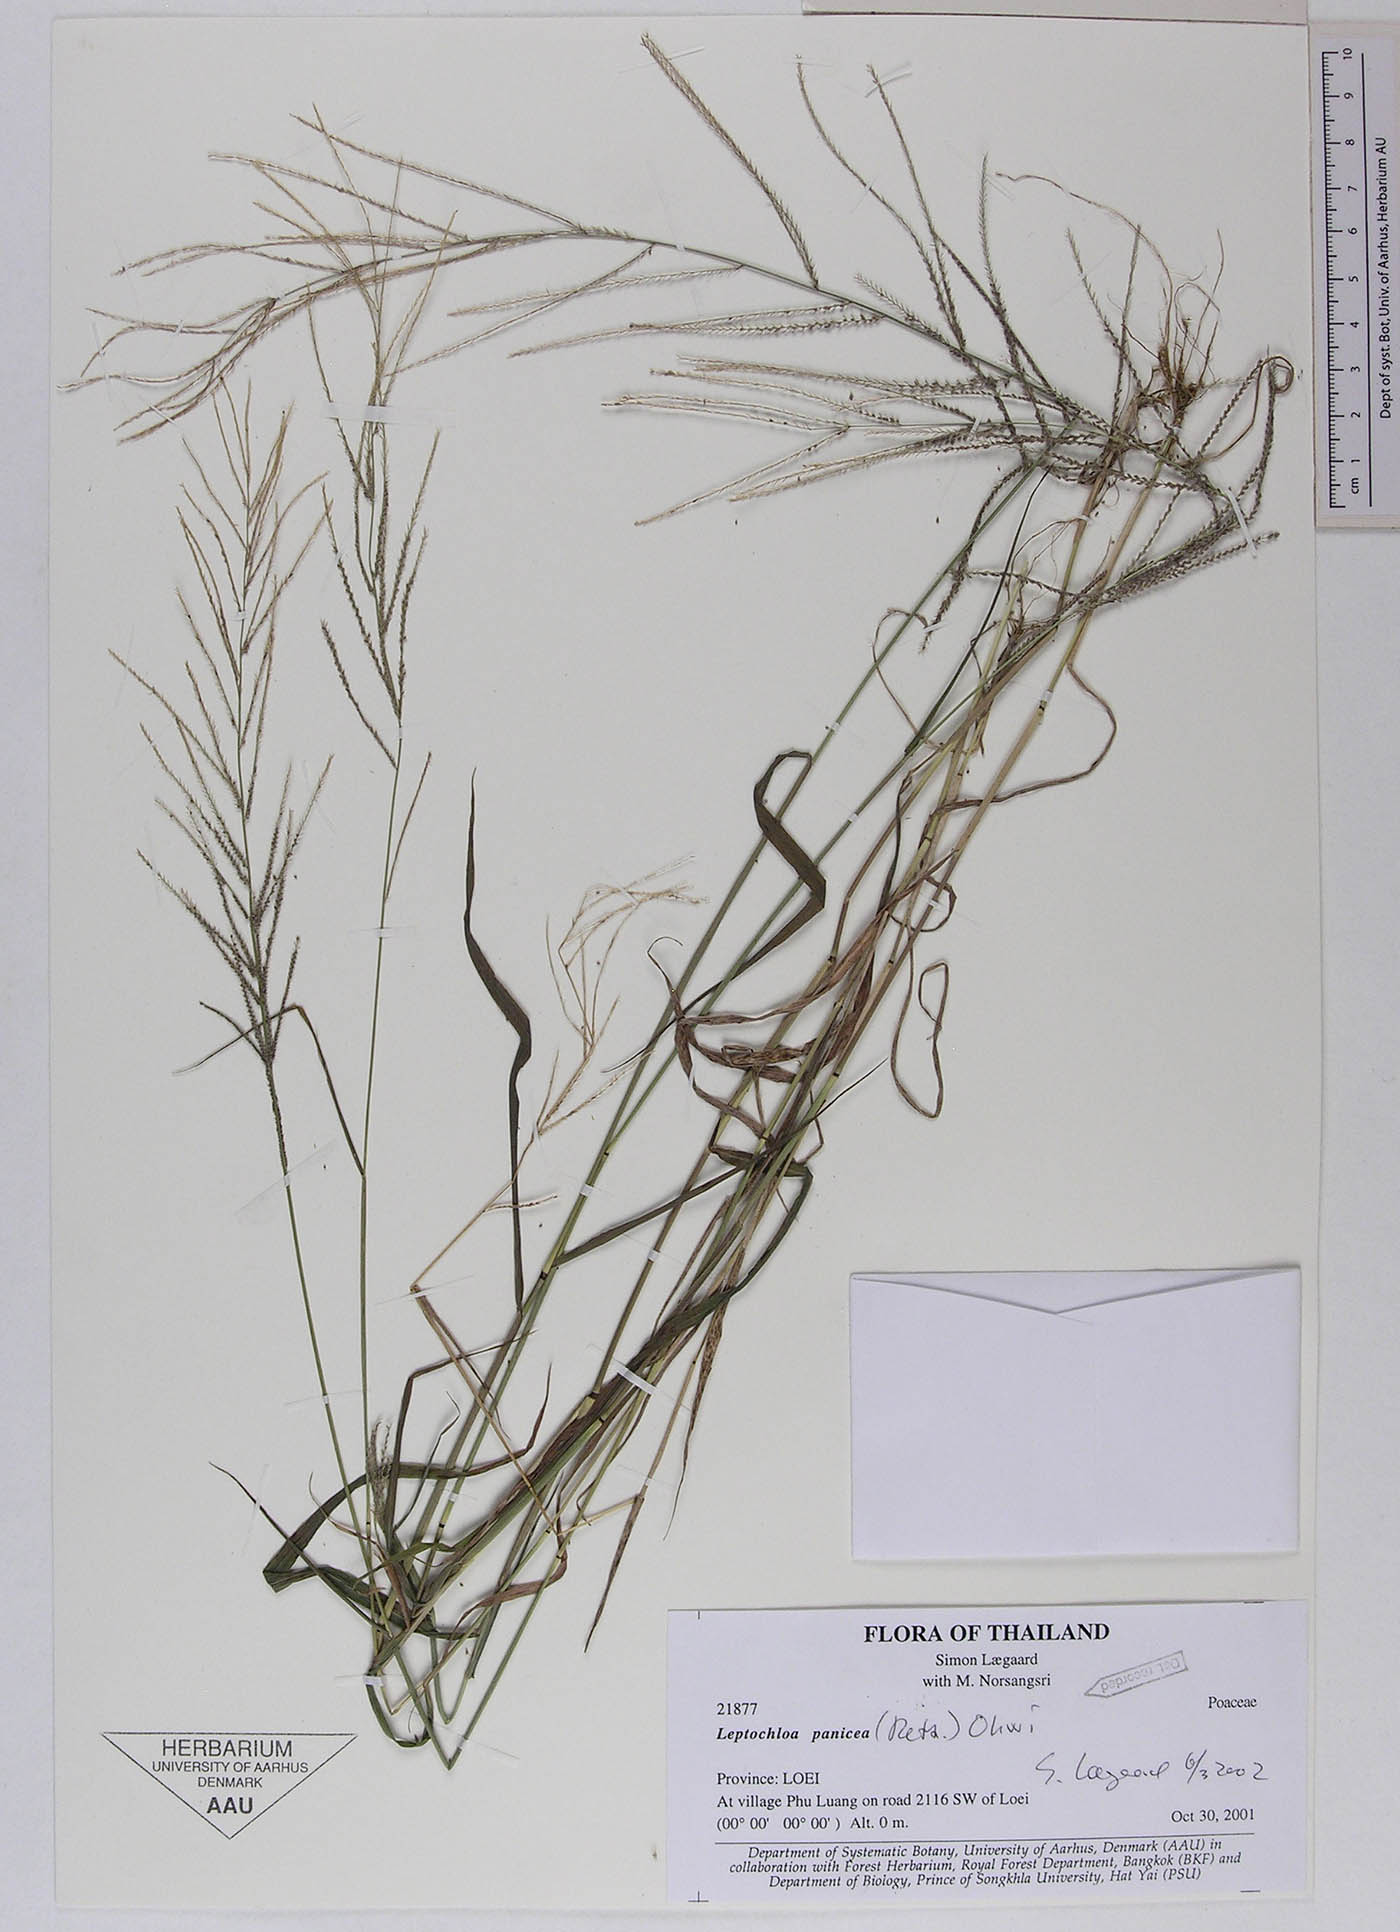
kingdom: Plantae
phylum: Tracheophyta
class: Liliopsida
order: Poales
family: Poaceae
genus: Leptochloa
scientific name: Leptochloa panicea
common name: Mucronate sprangletop
